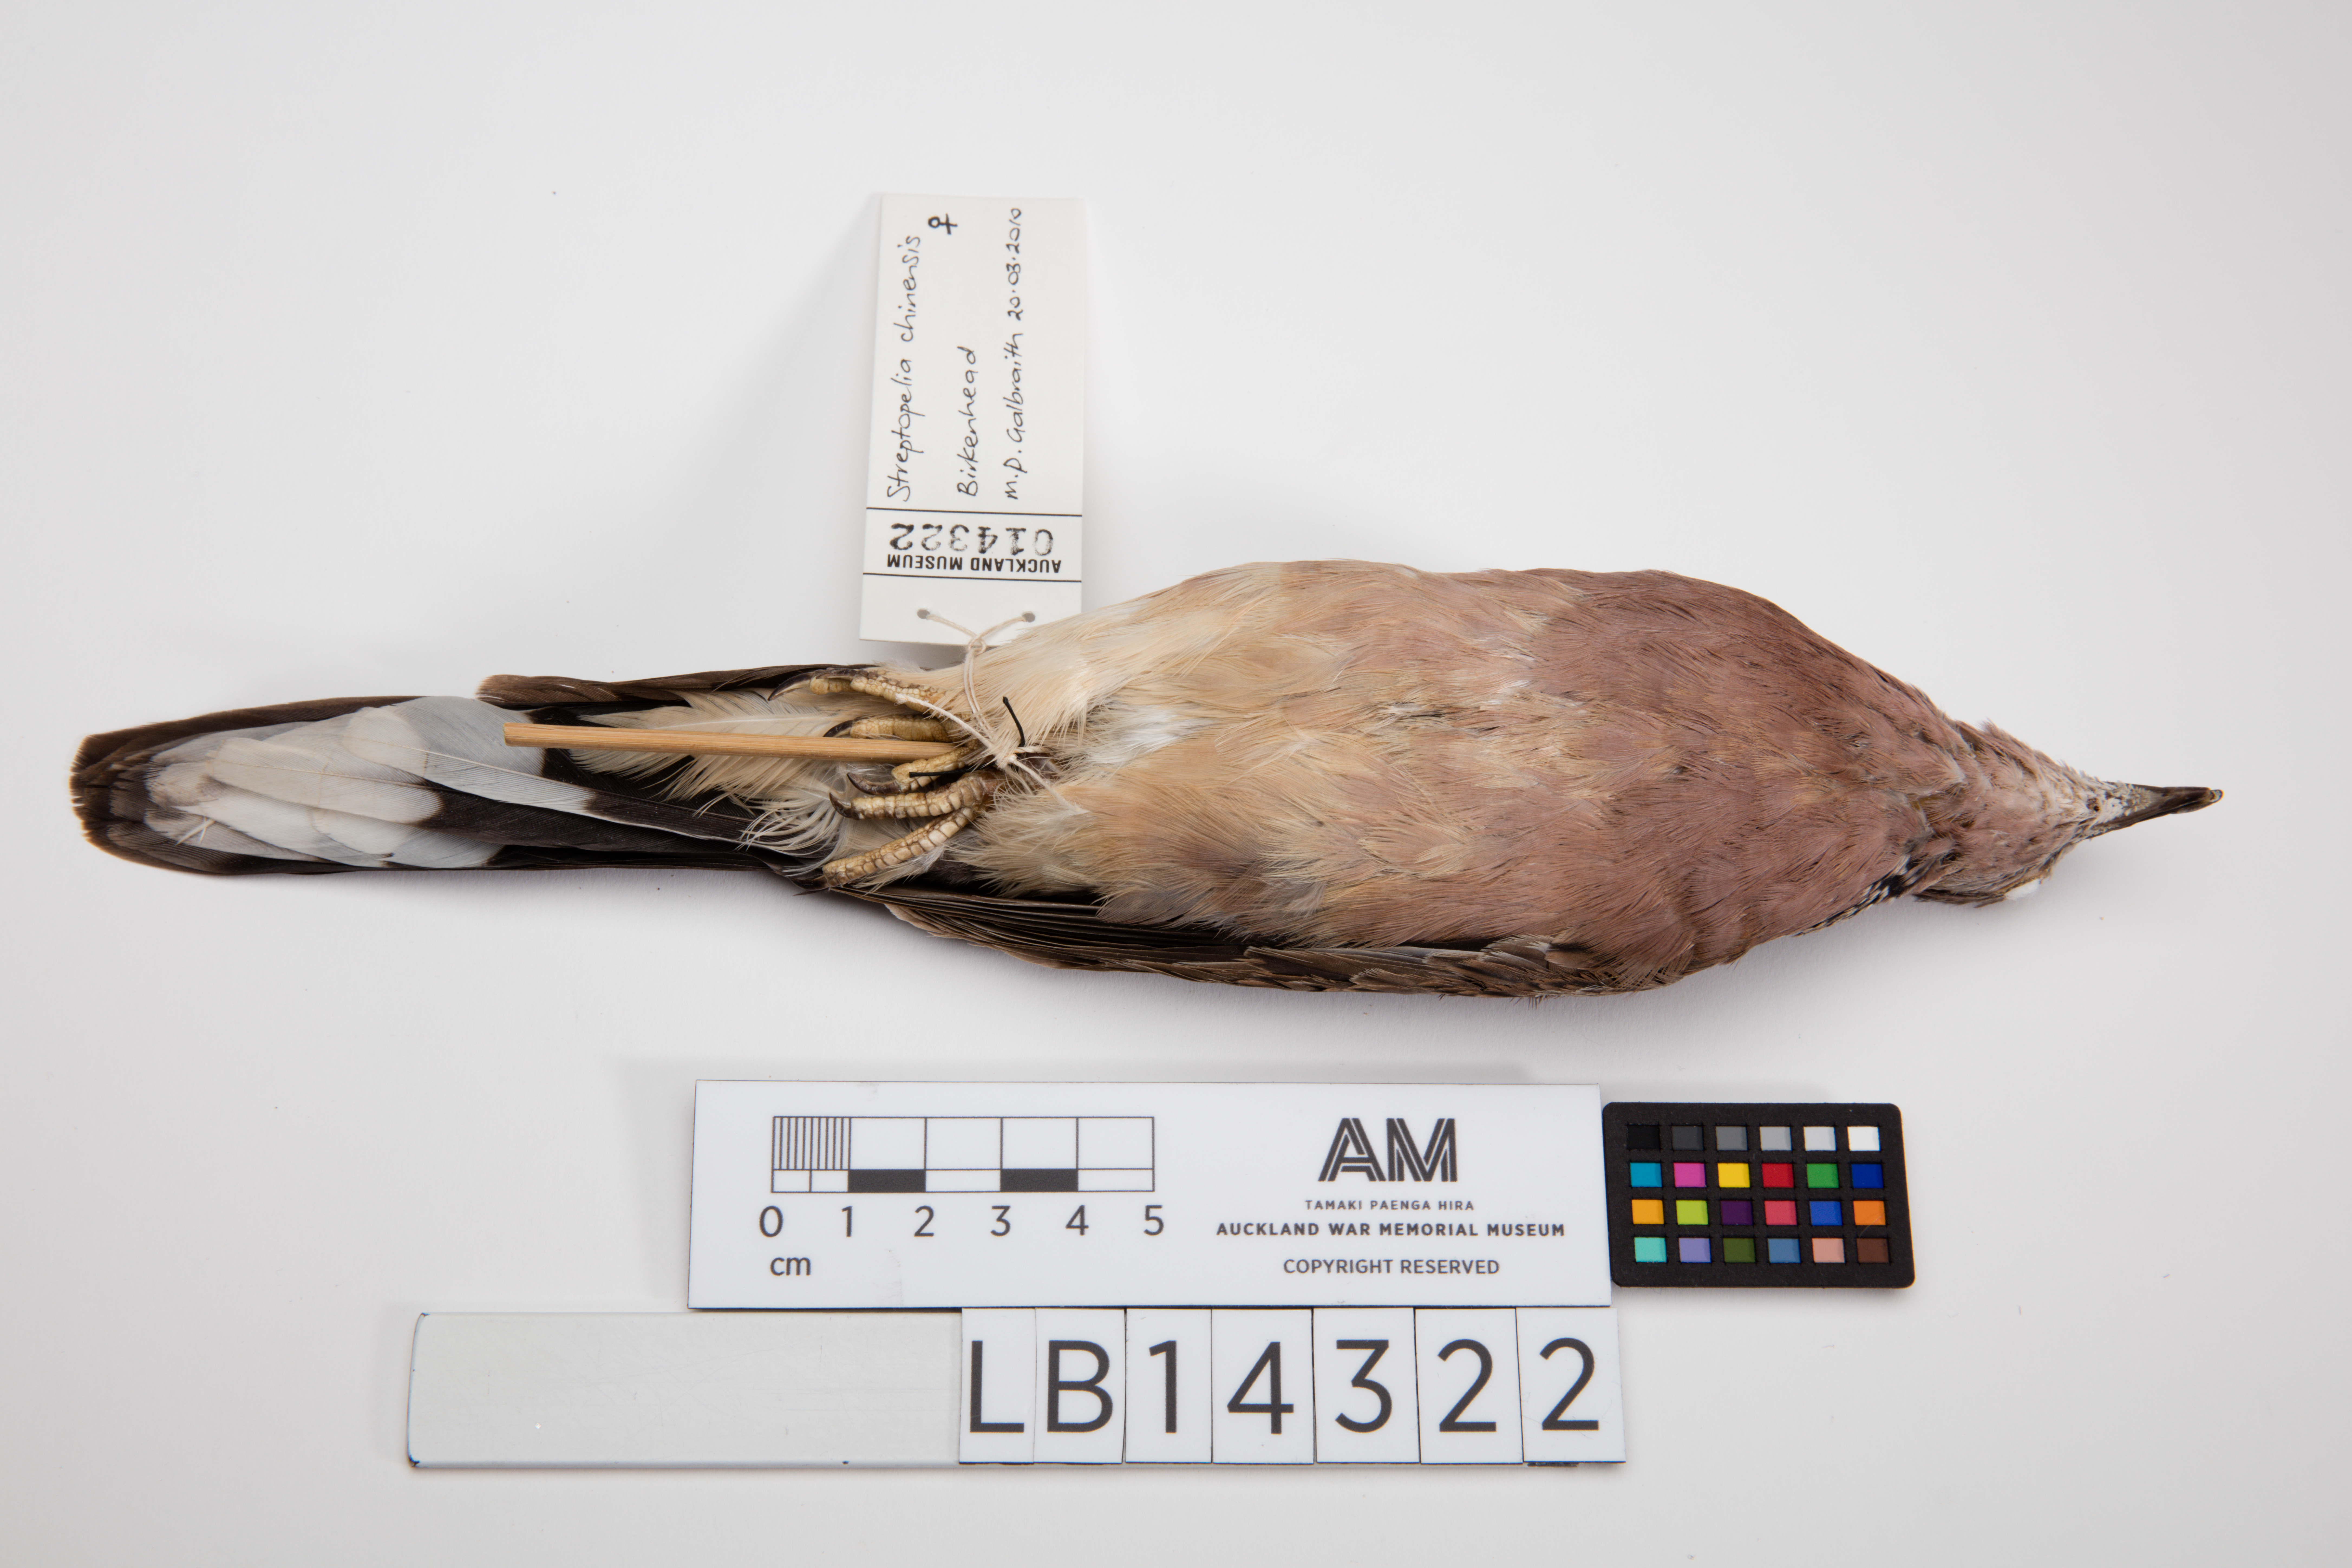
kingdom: Animalia
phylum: Chordata
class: Aves
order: Columbiformes
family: Columbidae
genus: Spilopelia
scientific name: Spilopelia chinensis
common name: Spotted dove
